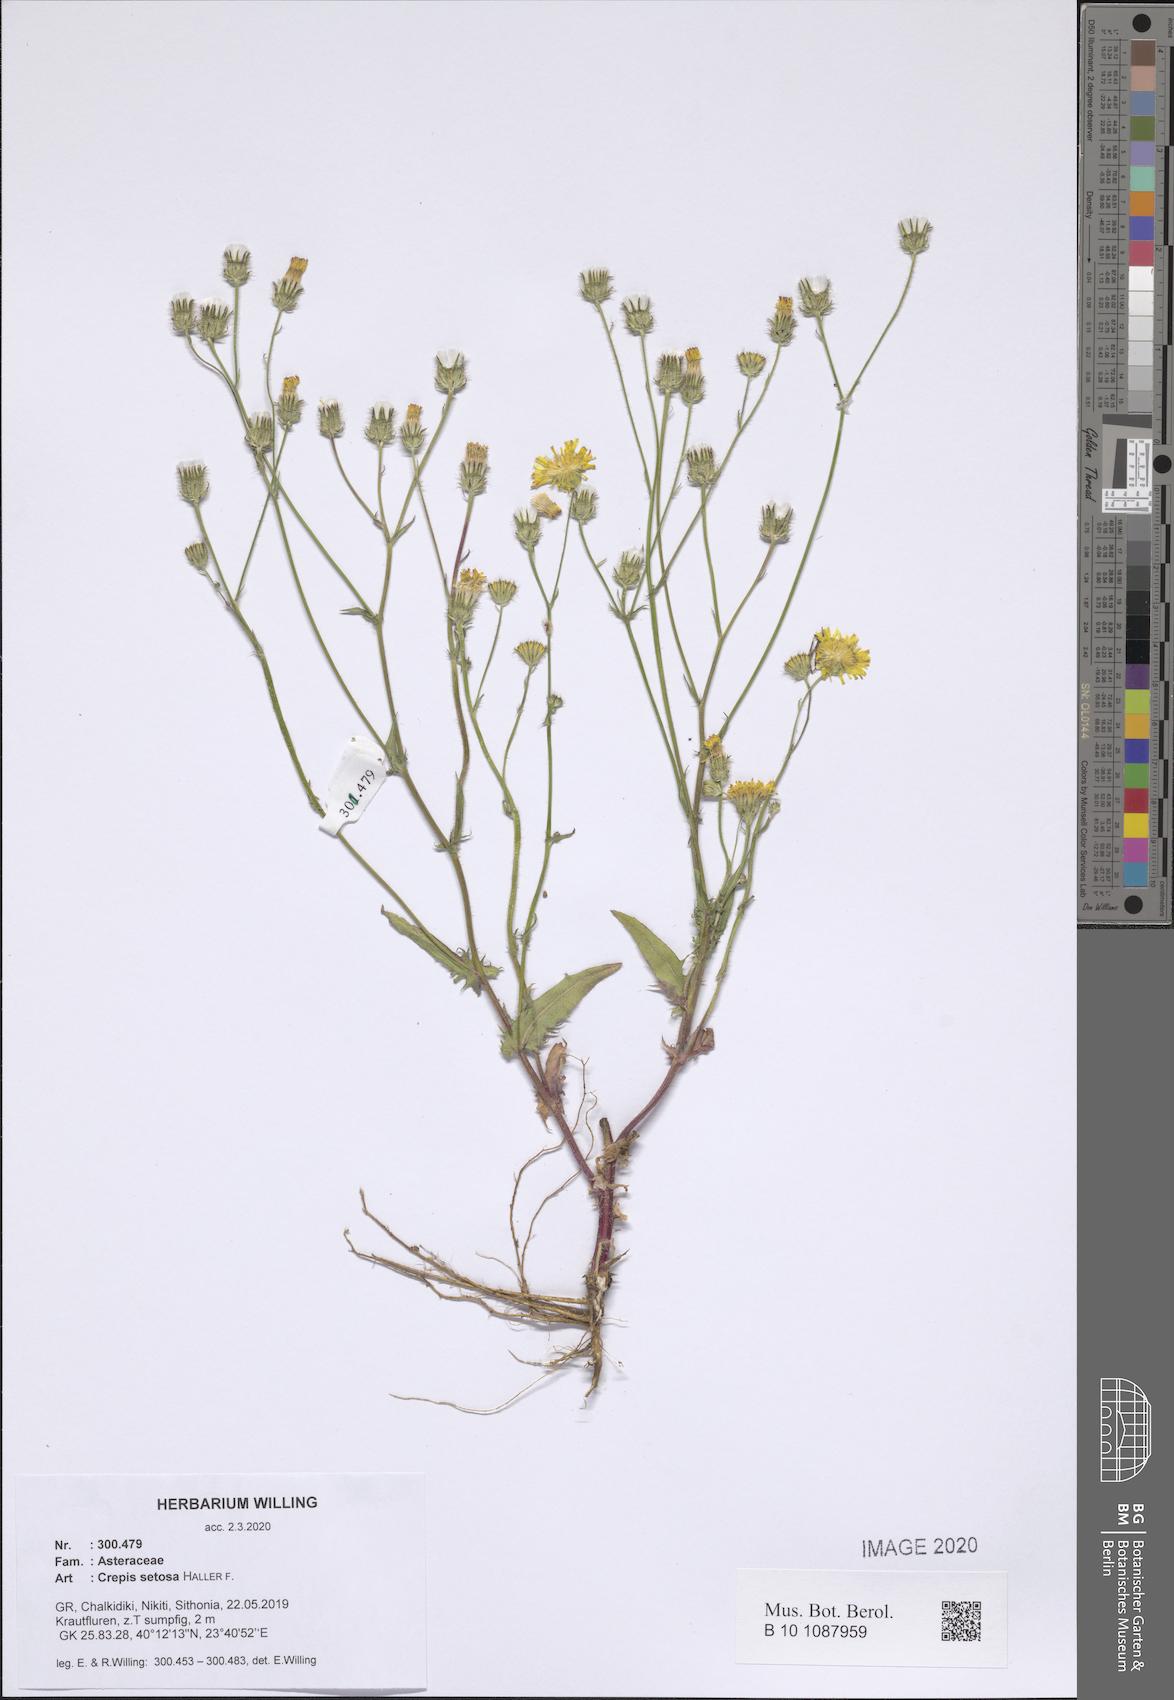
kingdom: Plantae
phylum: Tracheophyta
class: Magnoliopsida
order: Asterales
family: Asteraceae
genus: Crepis
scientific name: Crepis setosa
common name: Bristly hawk's-beard
